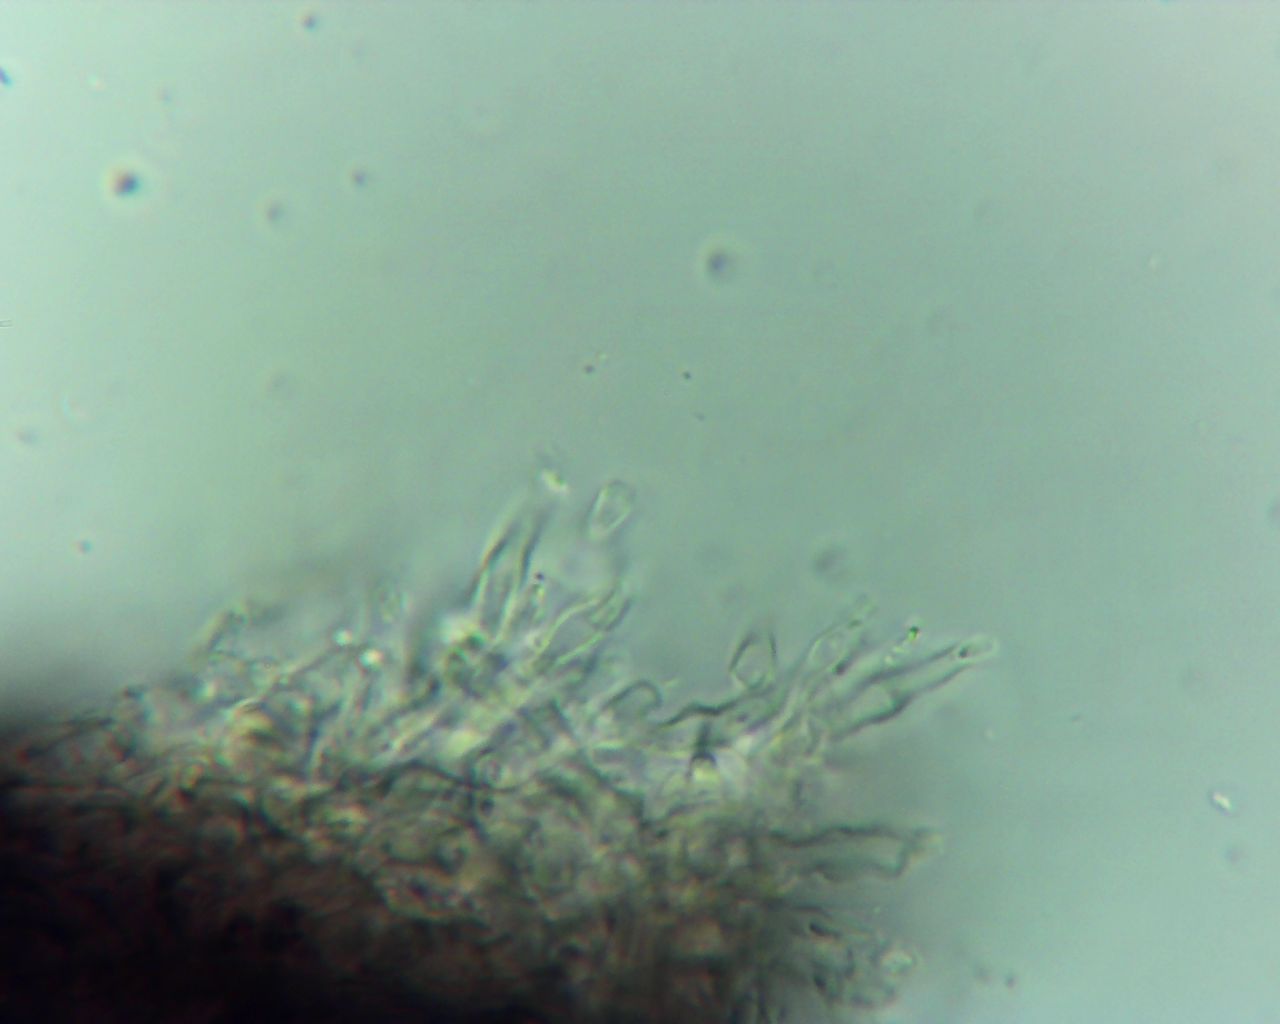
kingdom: Fungi
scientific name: Fungi
